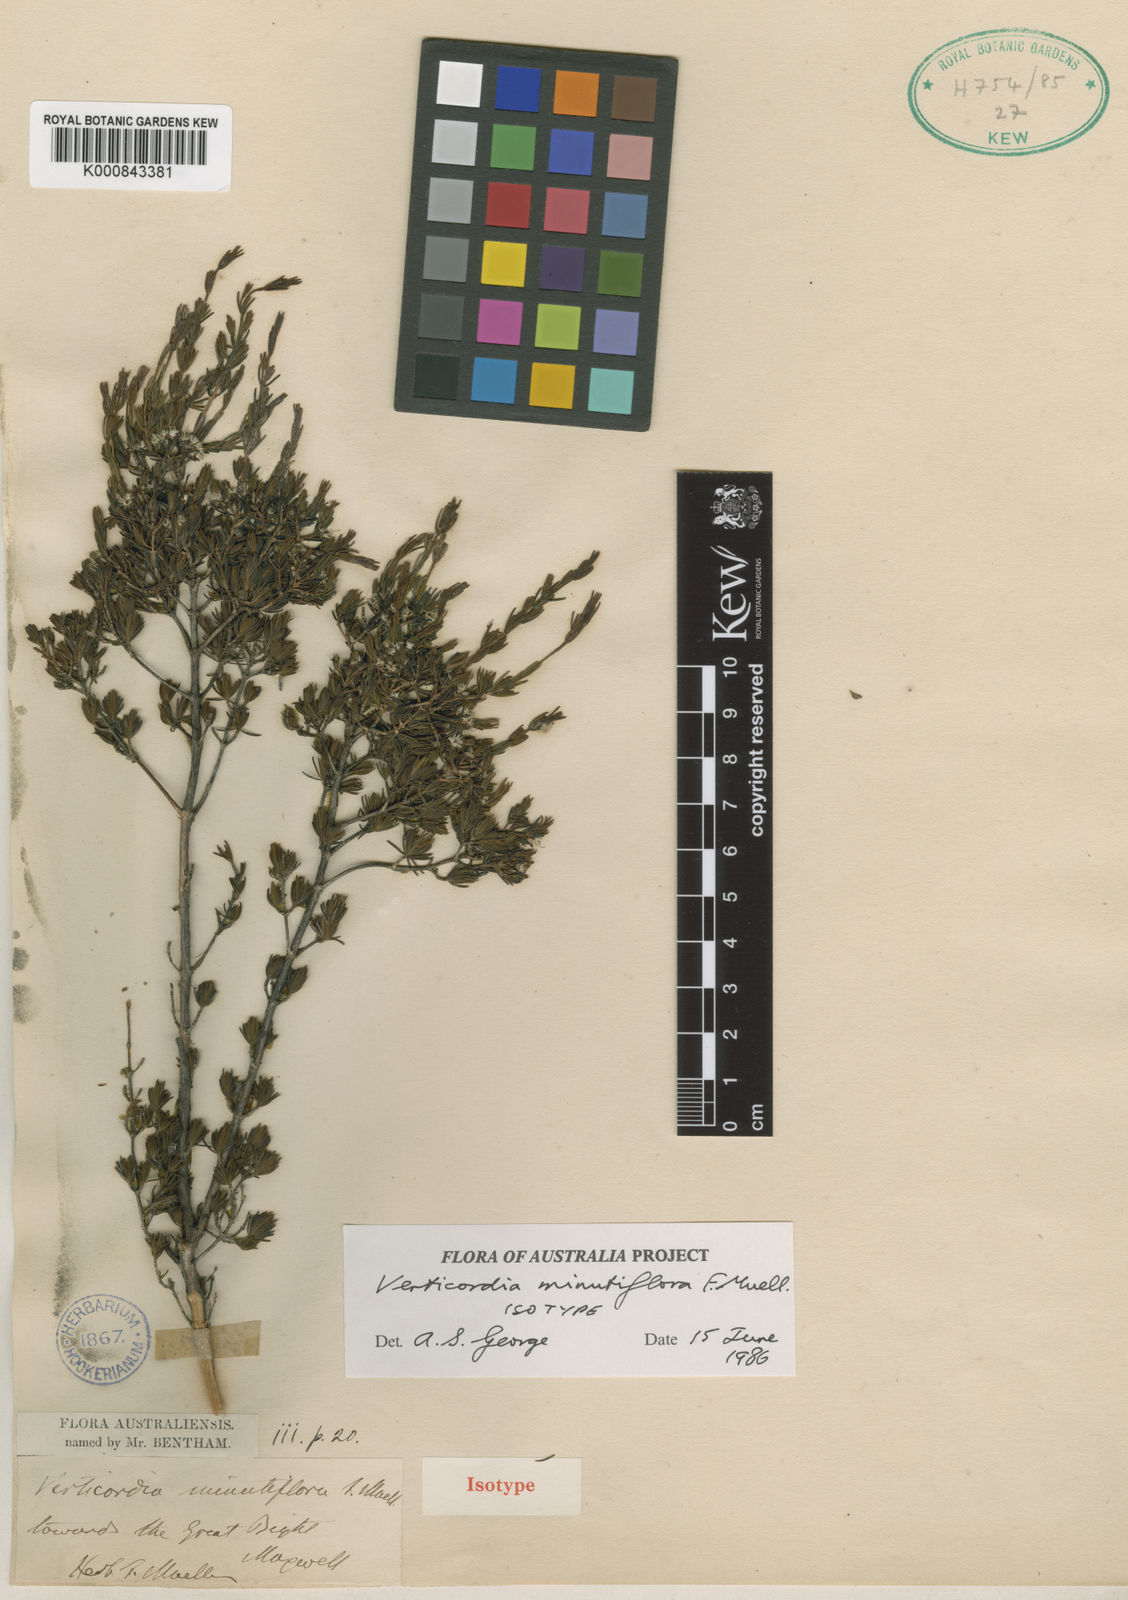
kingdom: Plantae
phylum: Tracheophyta
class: Magnoliopsida
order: Myrtales
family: Myrtaceae
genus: Verticordia
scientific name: Verticordia minutiflora
